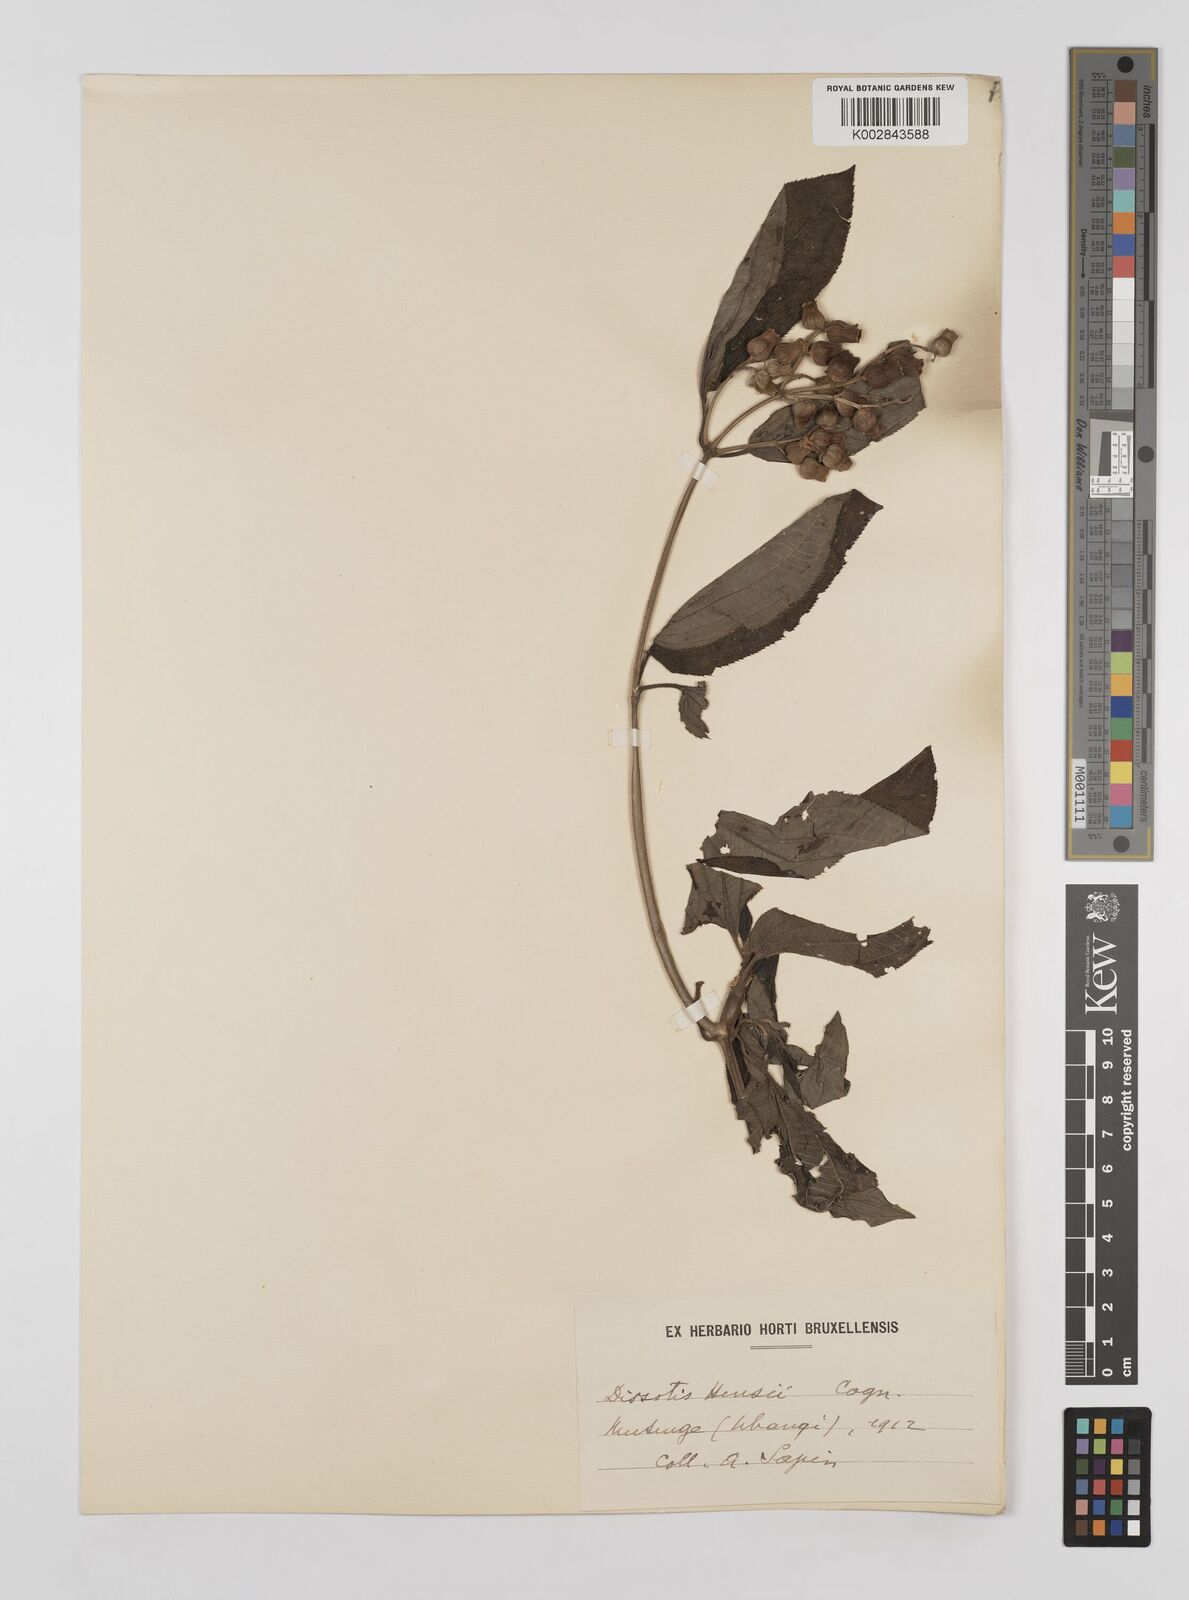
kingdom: Plantae
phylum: Tracheophyta
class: Magnoliopsida
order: Myrtales
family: Melastomataceae
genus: Dupineta
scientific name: Dupineta hensii
